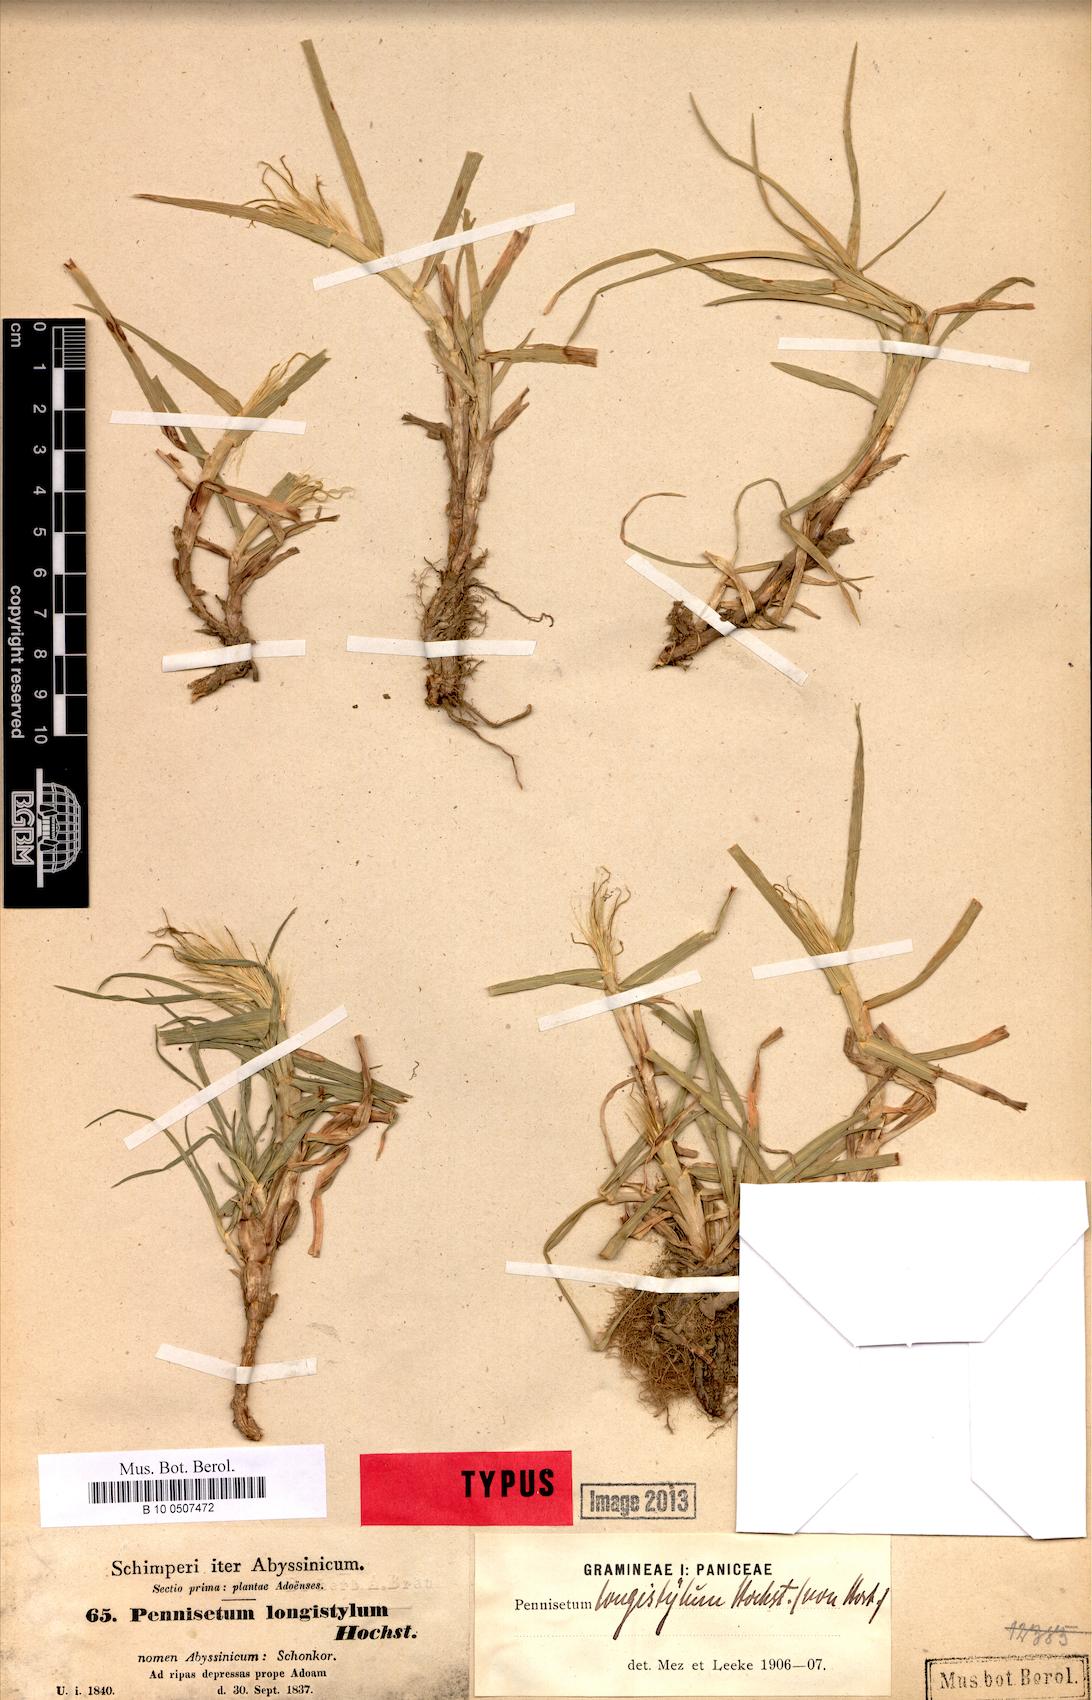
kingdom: Plantae
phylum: Tracheophyta
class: Liliopsida
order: Poales
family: Poaceae
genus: Cenchrus
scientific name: Cenchrus longistylus
